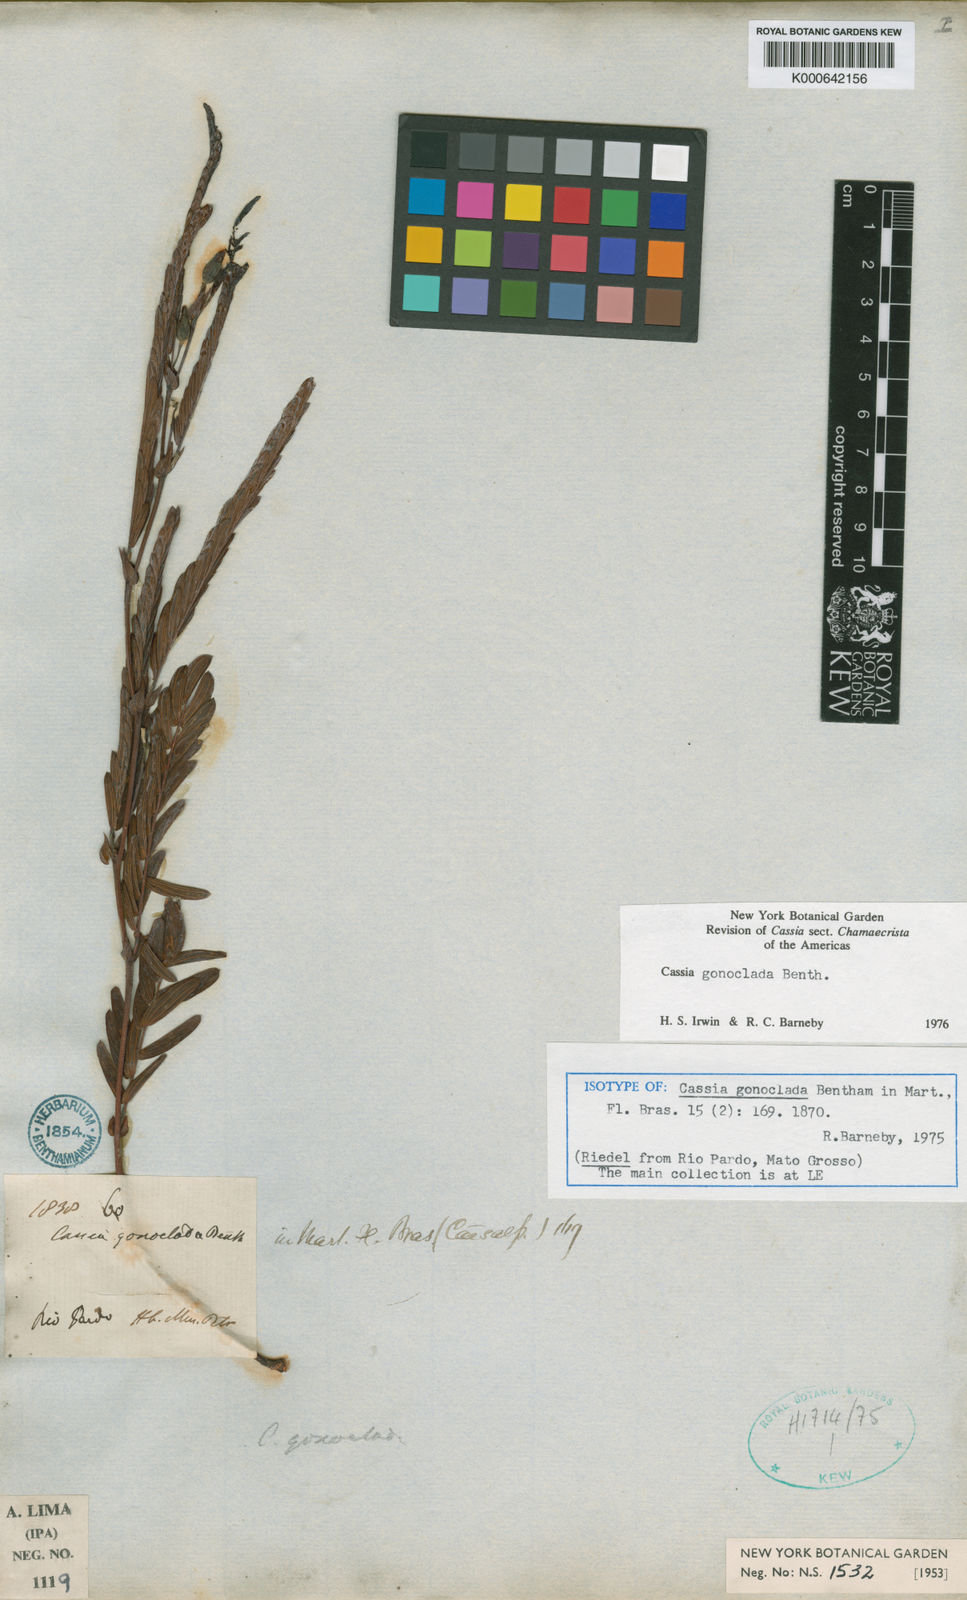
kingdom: Plantae
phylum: Tracheophyta
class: Magnoliopsida
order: Fabales
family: Fabaceae
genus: Chamaecrista
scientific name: Chamaecrista gonoclada
